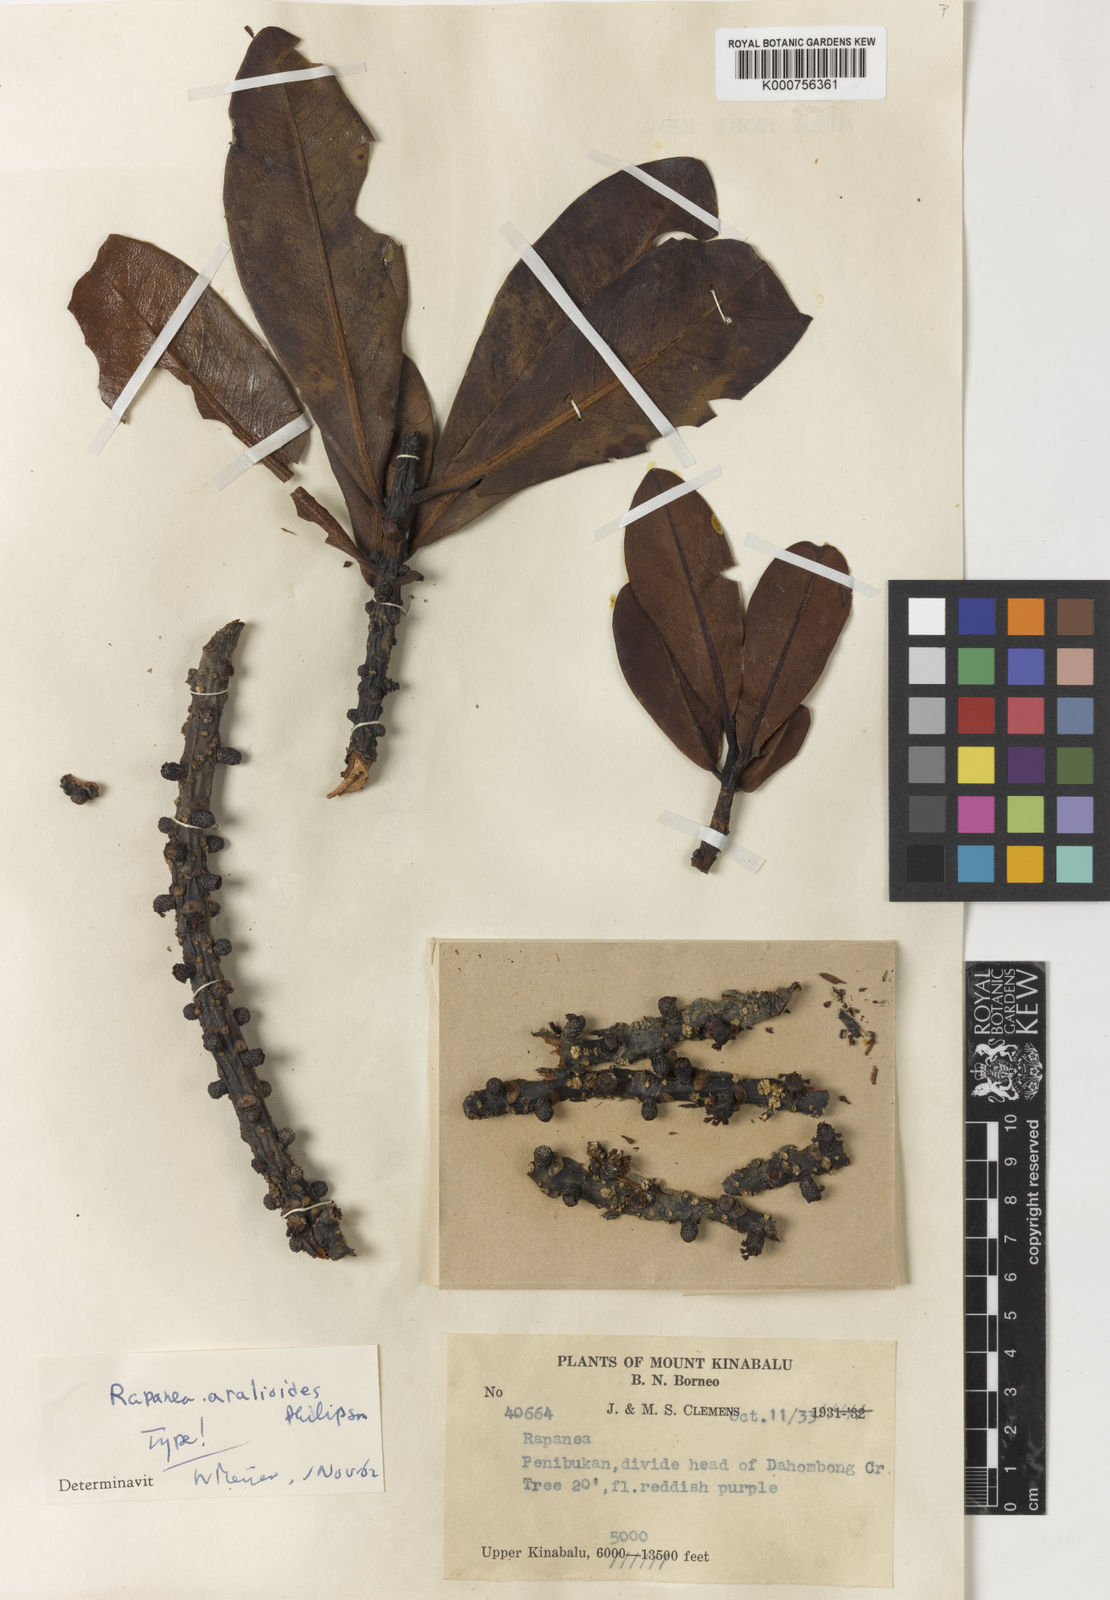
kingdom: Plantae
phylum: Tracheophyta
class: Magnoliopsida
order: Ericales
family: Primulaceae
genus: Myrsine
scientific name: Myrsine aralioides
